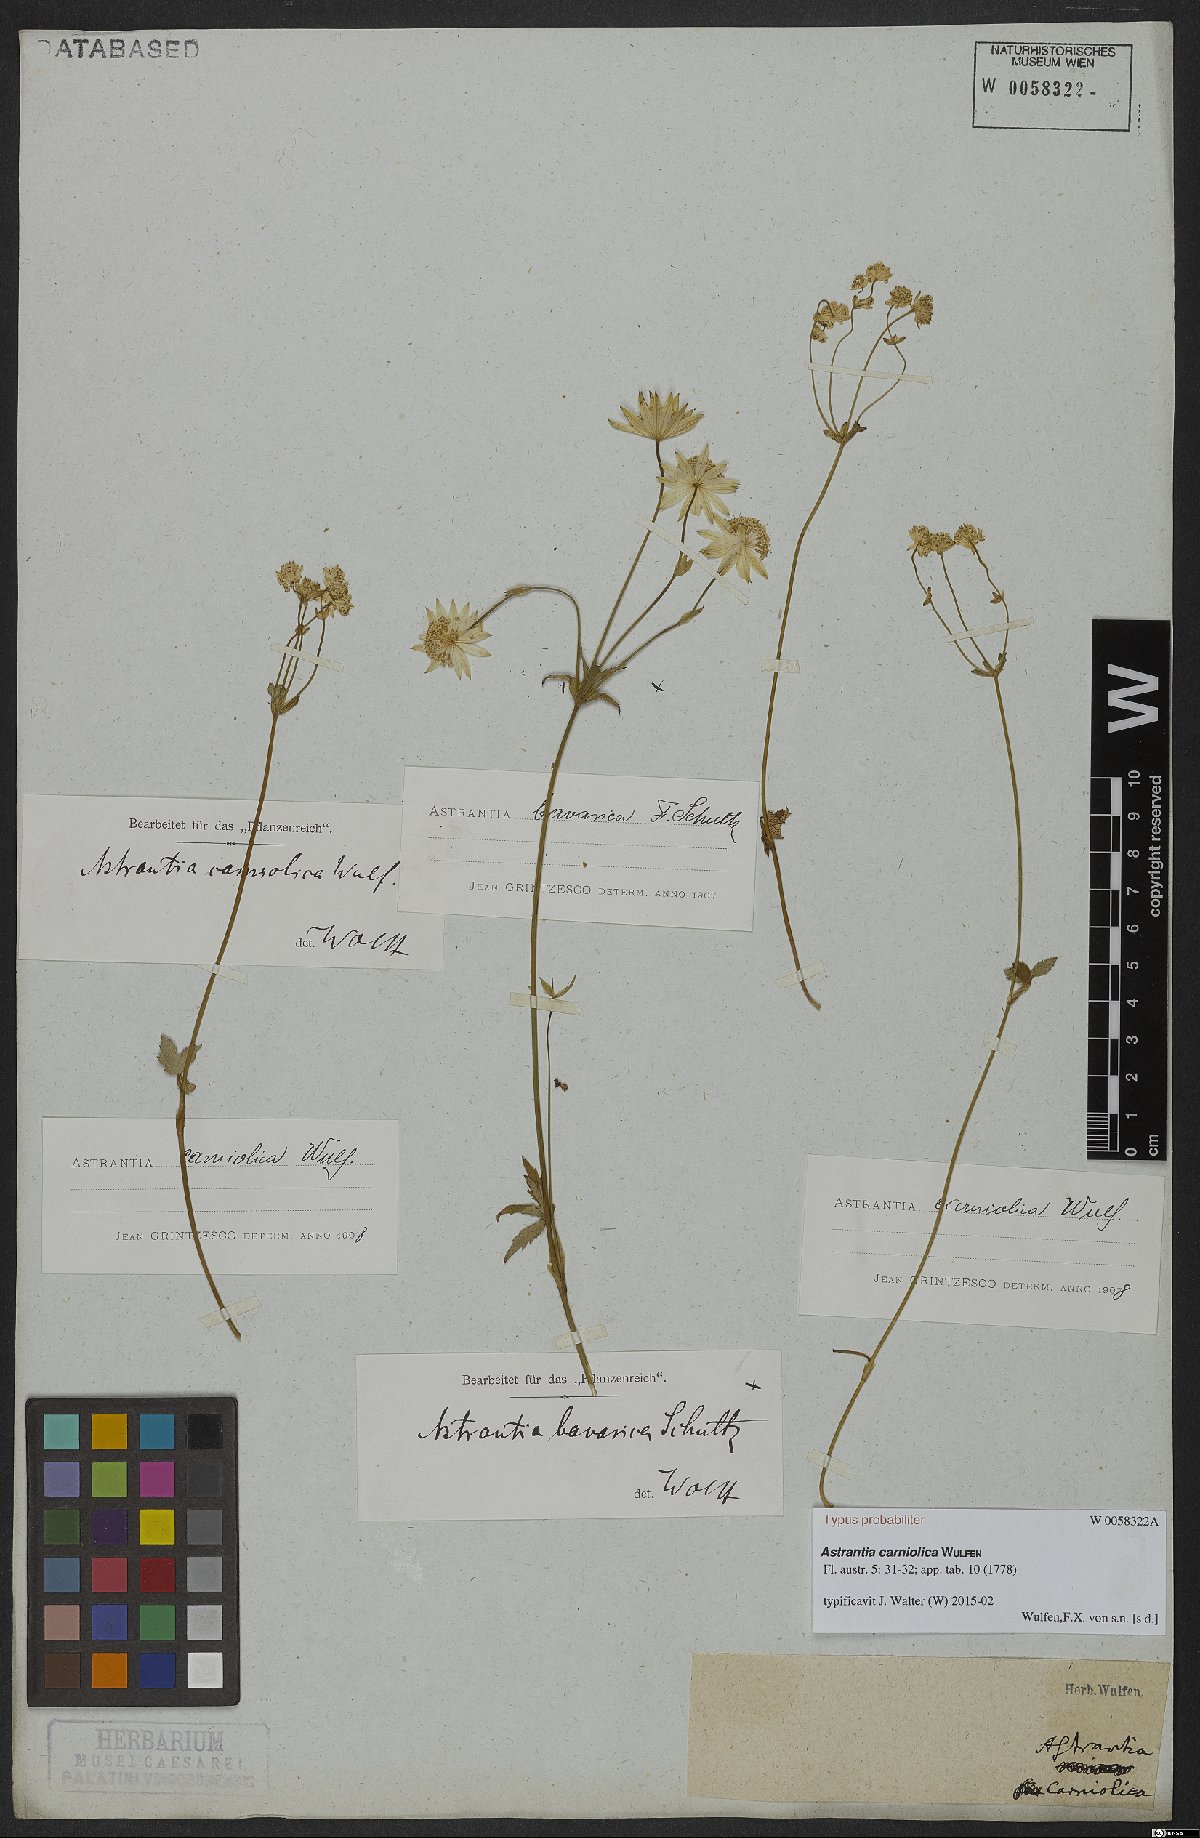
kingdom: Plantae
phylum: Tracheophyta
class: Magnoliopsida
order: Apiales
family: Apiaceae
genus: Astrantia
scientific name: Astrantia bavarica
